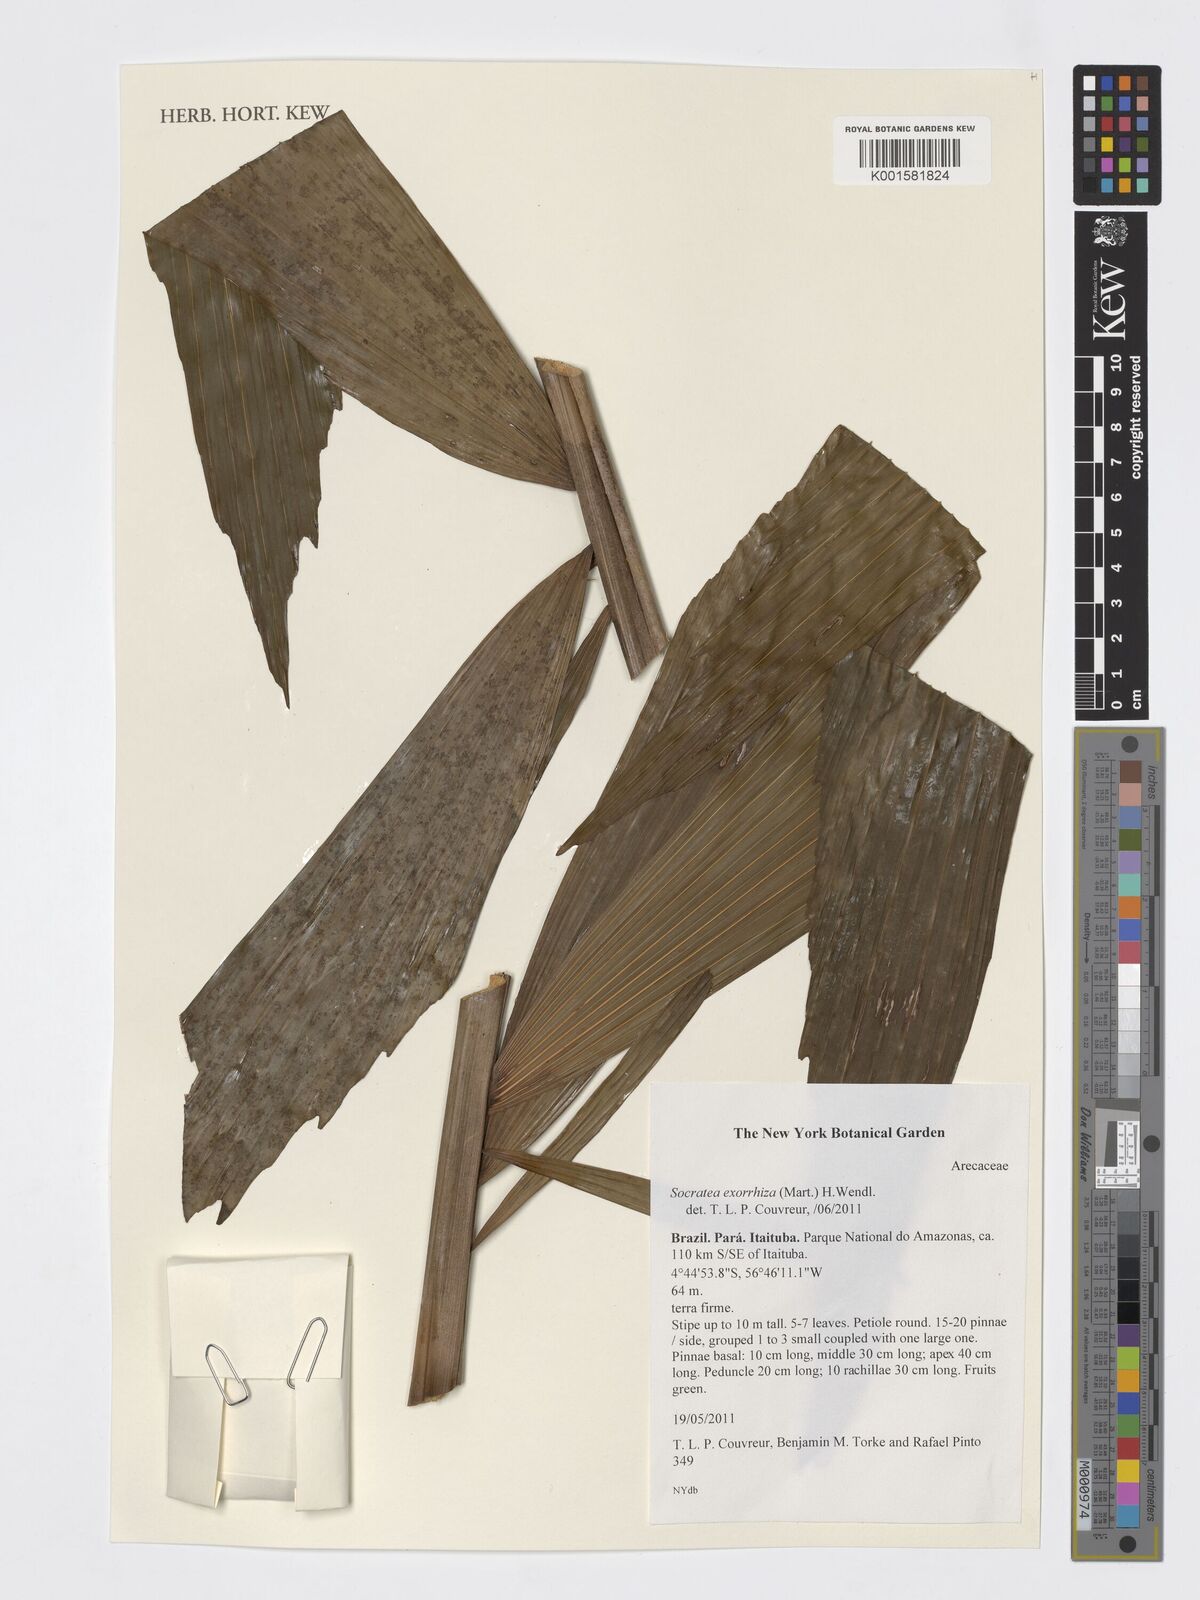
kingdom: Plantae
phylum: Tracheophyta
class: Liliopsida
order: Arecales
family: Arecaceae
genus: Socratea
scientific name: Socratea exorrhiza
